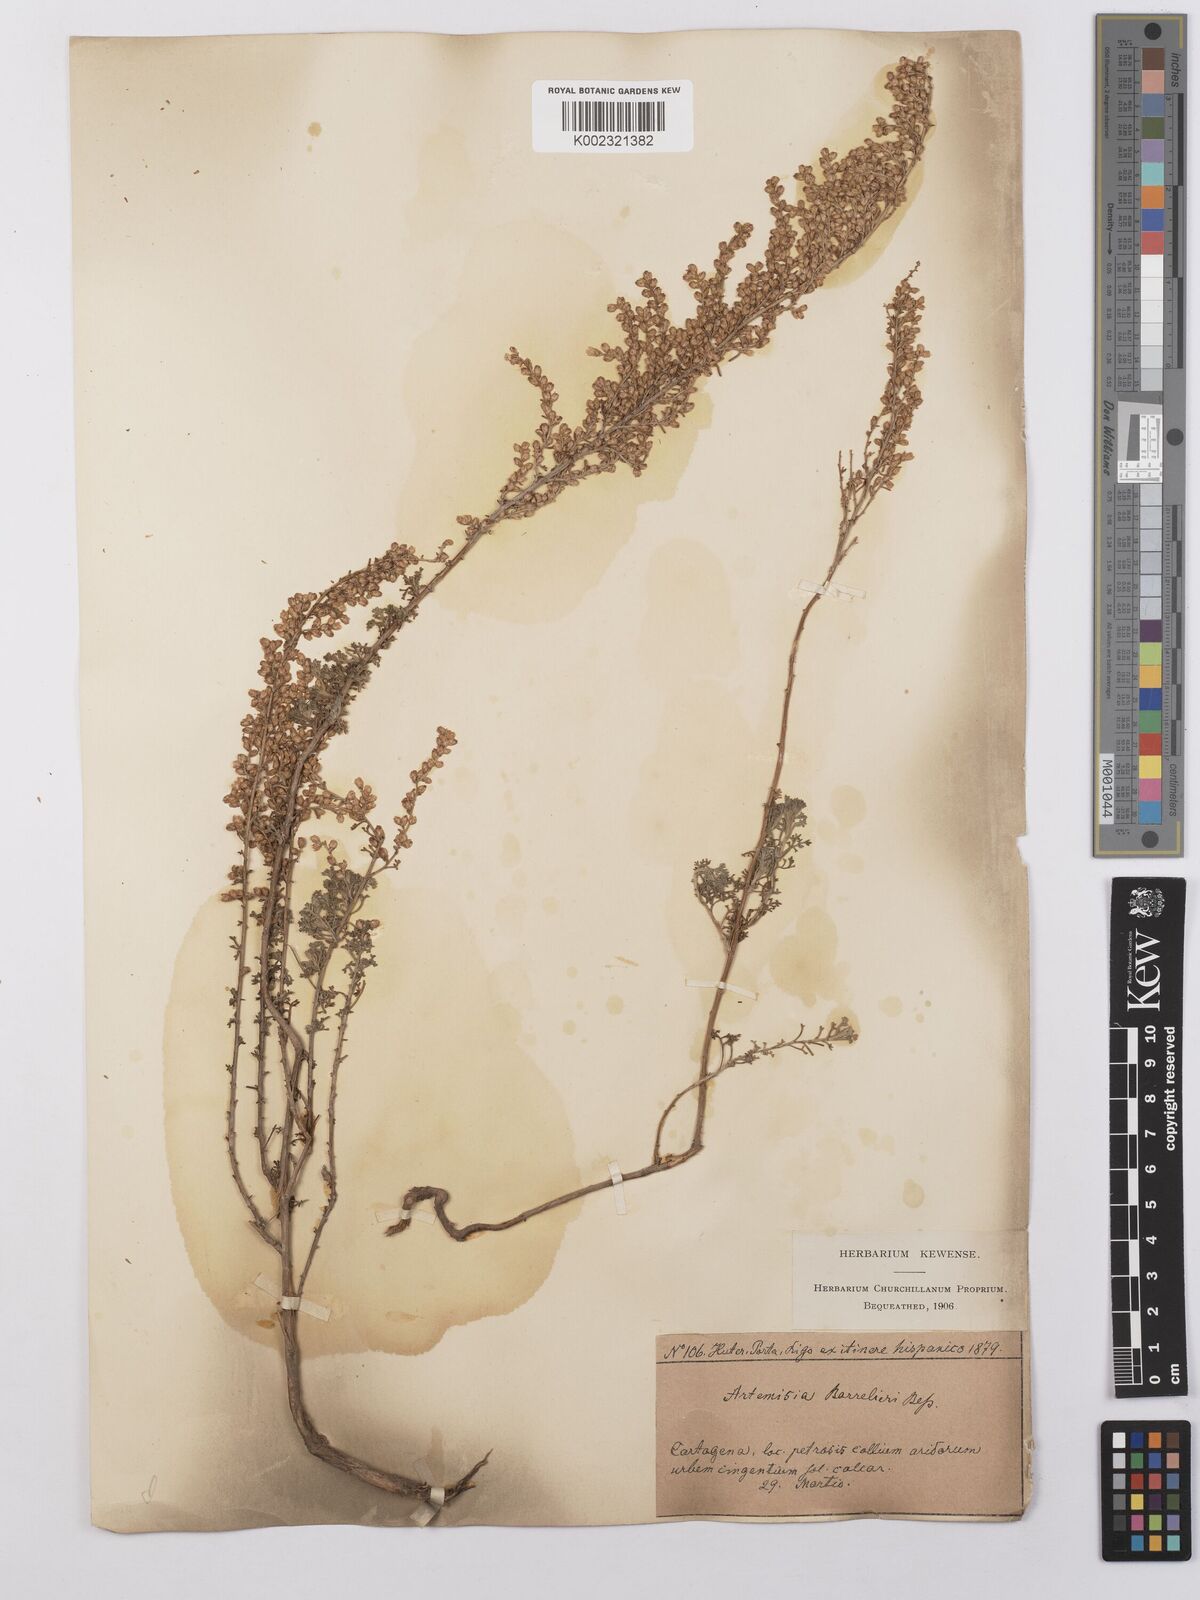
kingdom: Plantae
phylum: Tracheophyta
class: Magnoliopsida
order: Asterales
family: Asteraceae
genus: Artemisia
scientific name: Artemisia barrelieri
